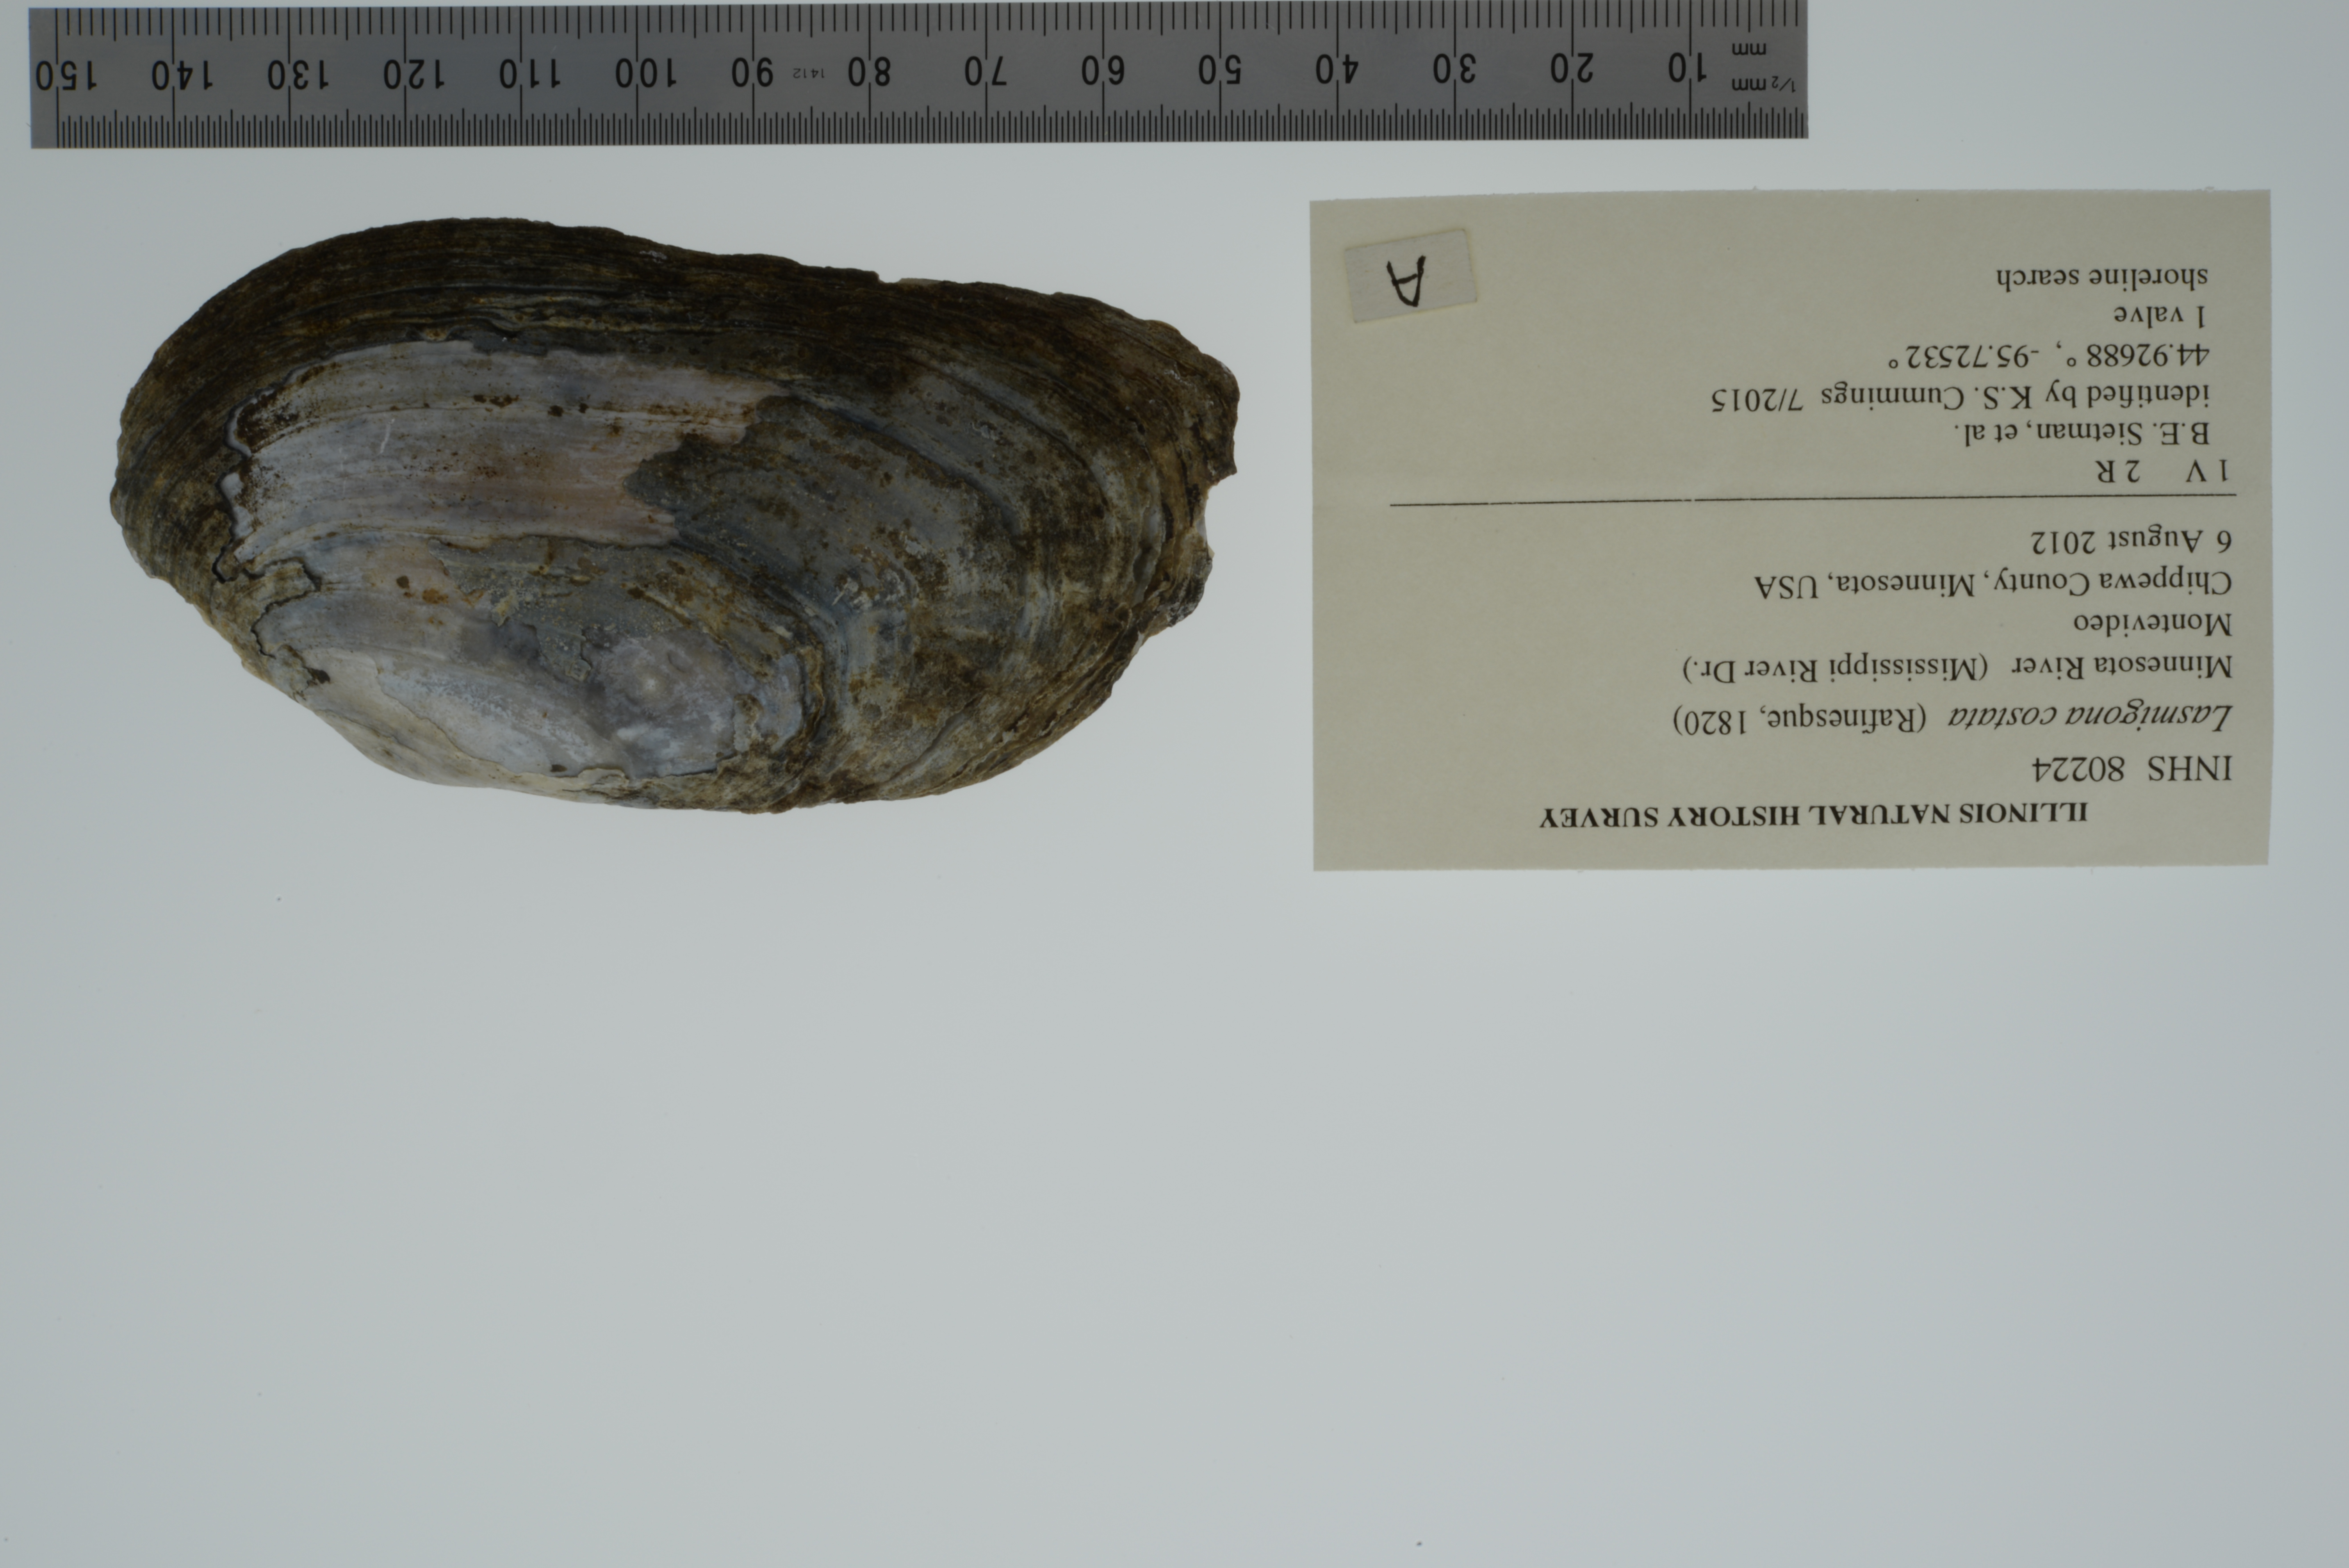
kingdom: Animalia
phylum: Mollusca
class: Bivalvia
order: Unionida
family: Unionidae
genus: Lasmigona
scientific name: Lasmigona costata
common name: Flutedshell
